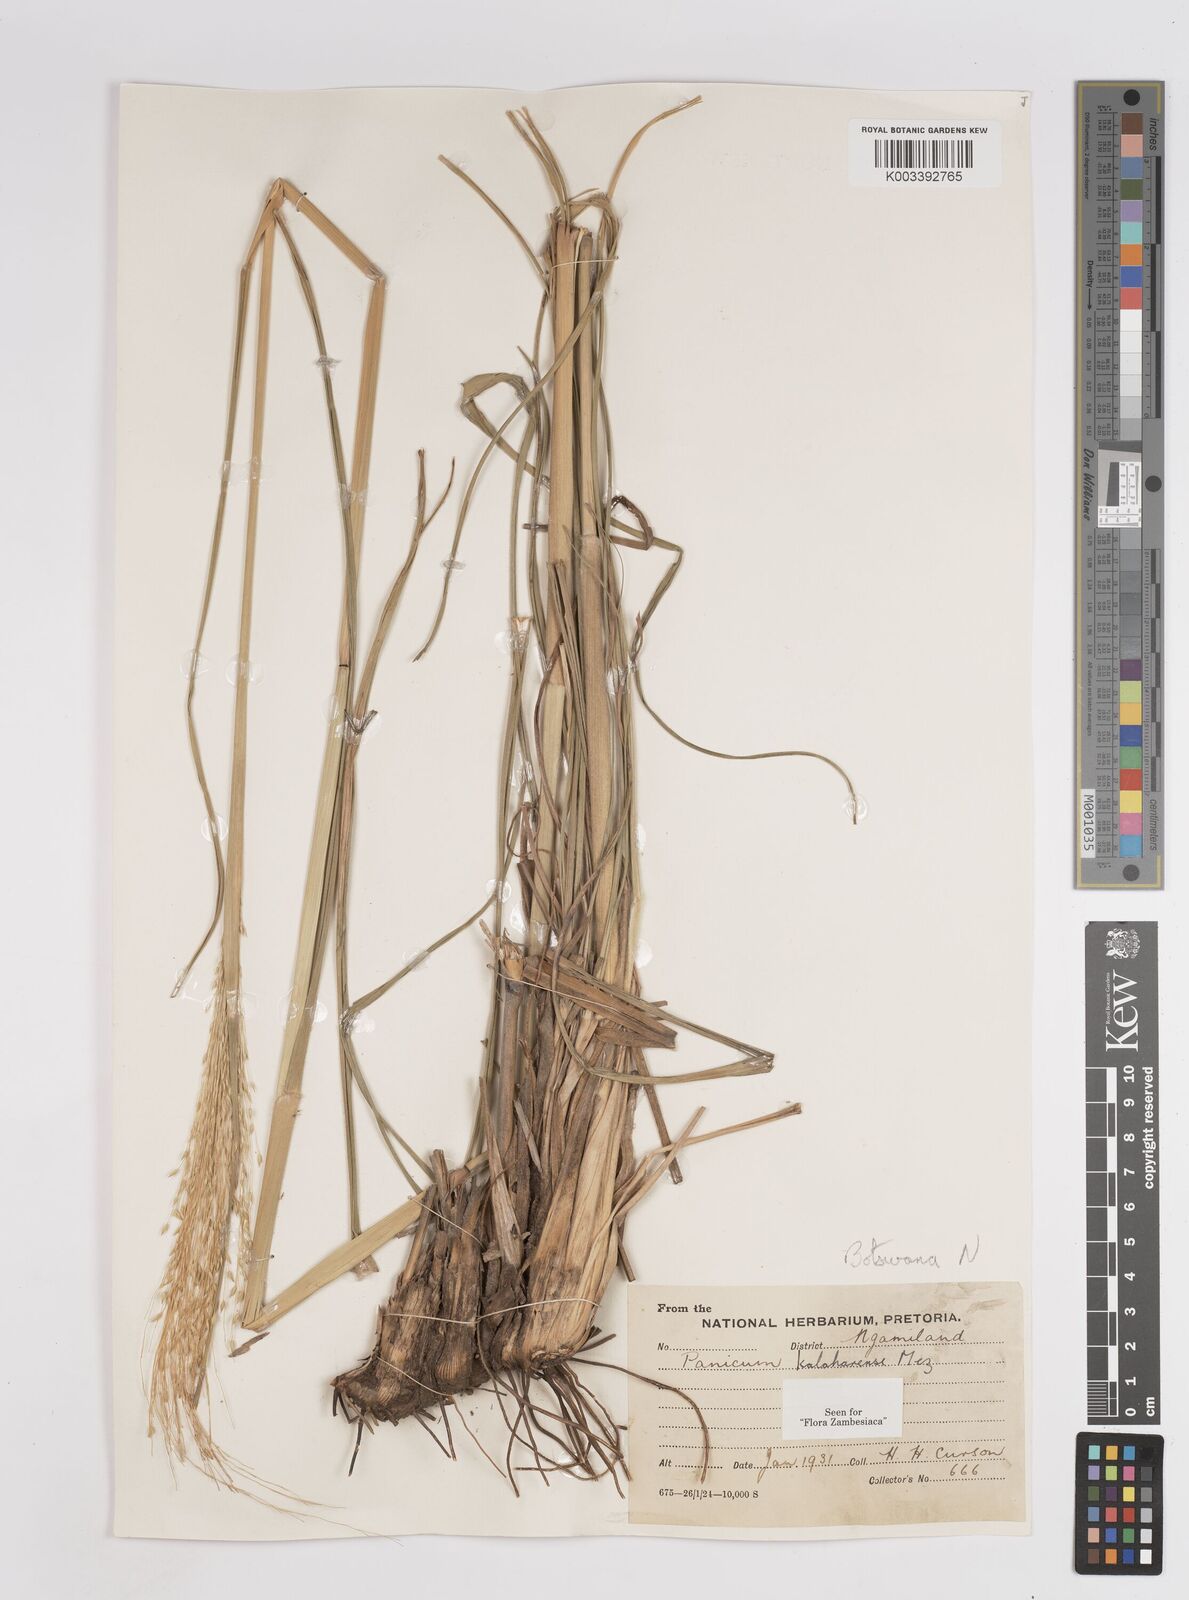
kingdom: Plantae
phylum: Tracheophyta
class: Liliopsida
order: Poales
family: Poaceae
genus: Panicum
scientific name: Panicum kalaharense
